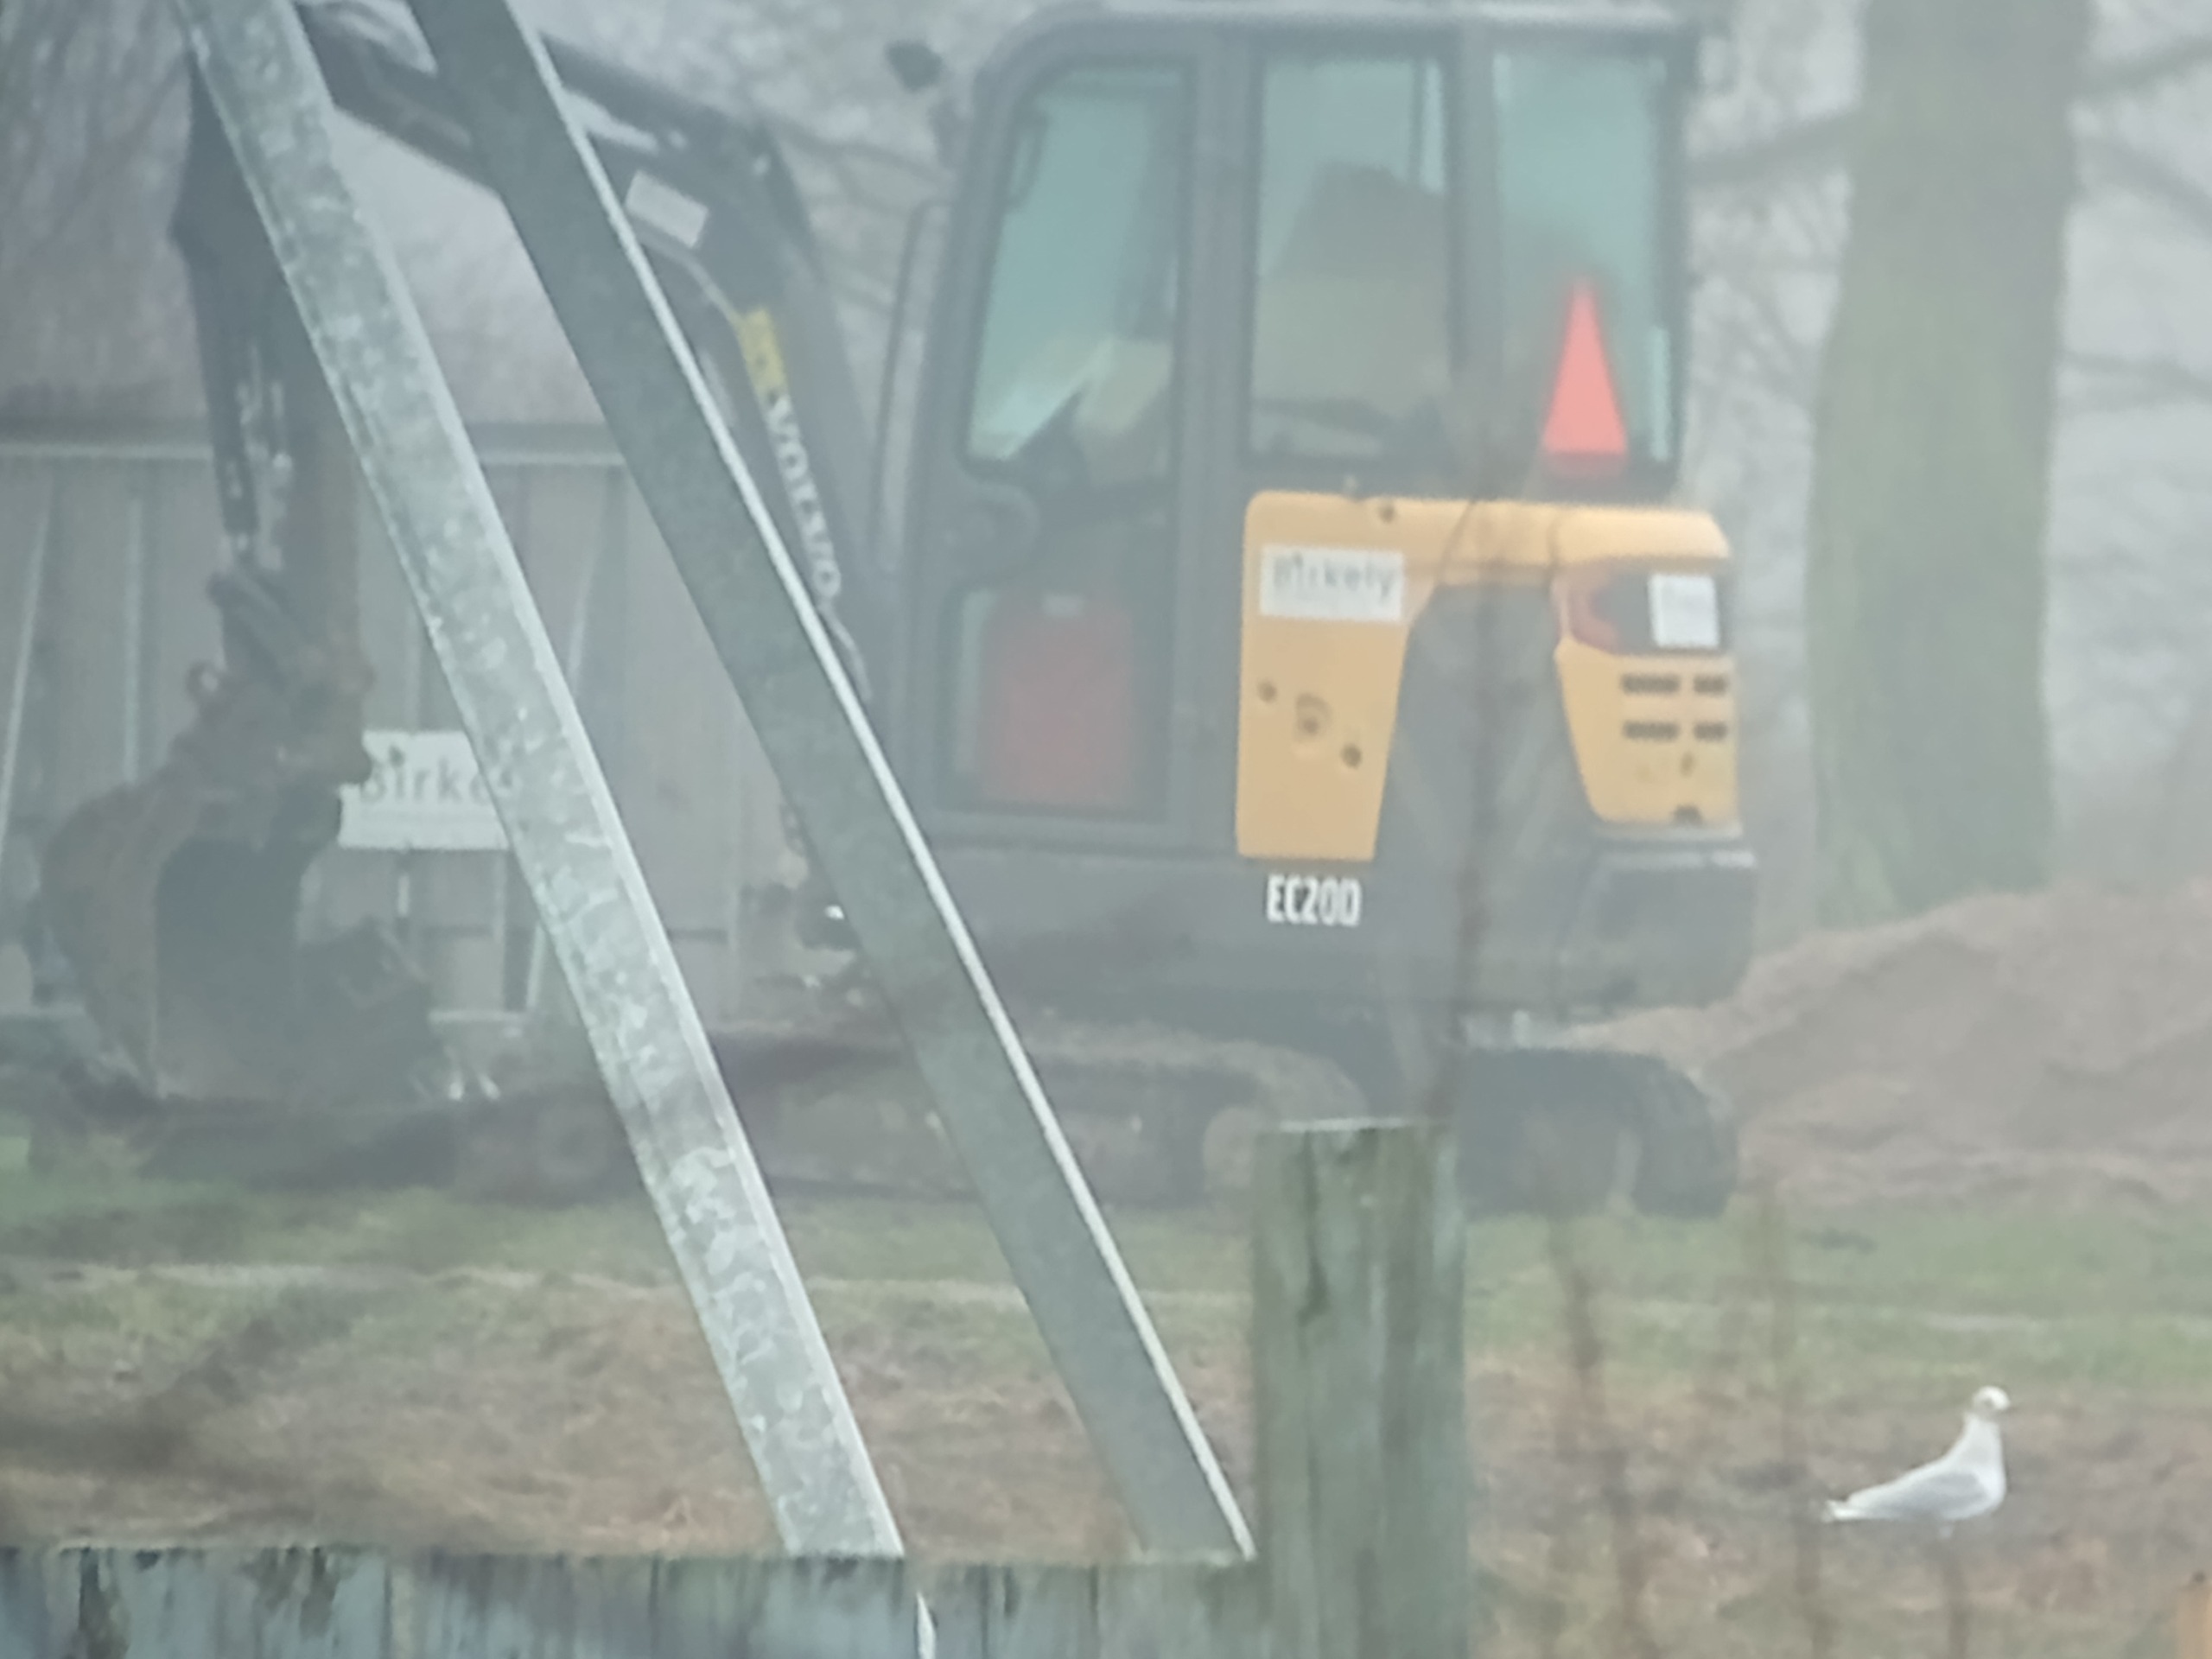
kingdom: Animalia
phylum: Chordata
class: Aves
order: Charadriiformes
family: Laridae
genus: Chroicocephalus
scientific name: Chroicocephalus ridibundus
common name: Hættemåge
